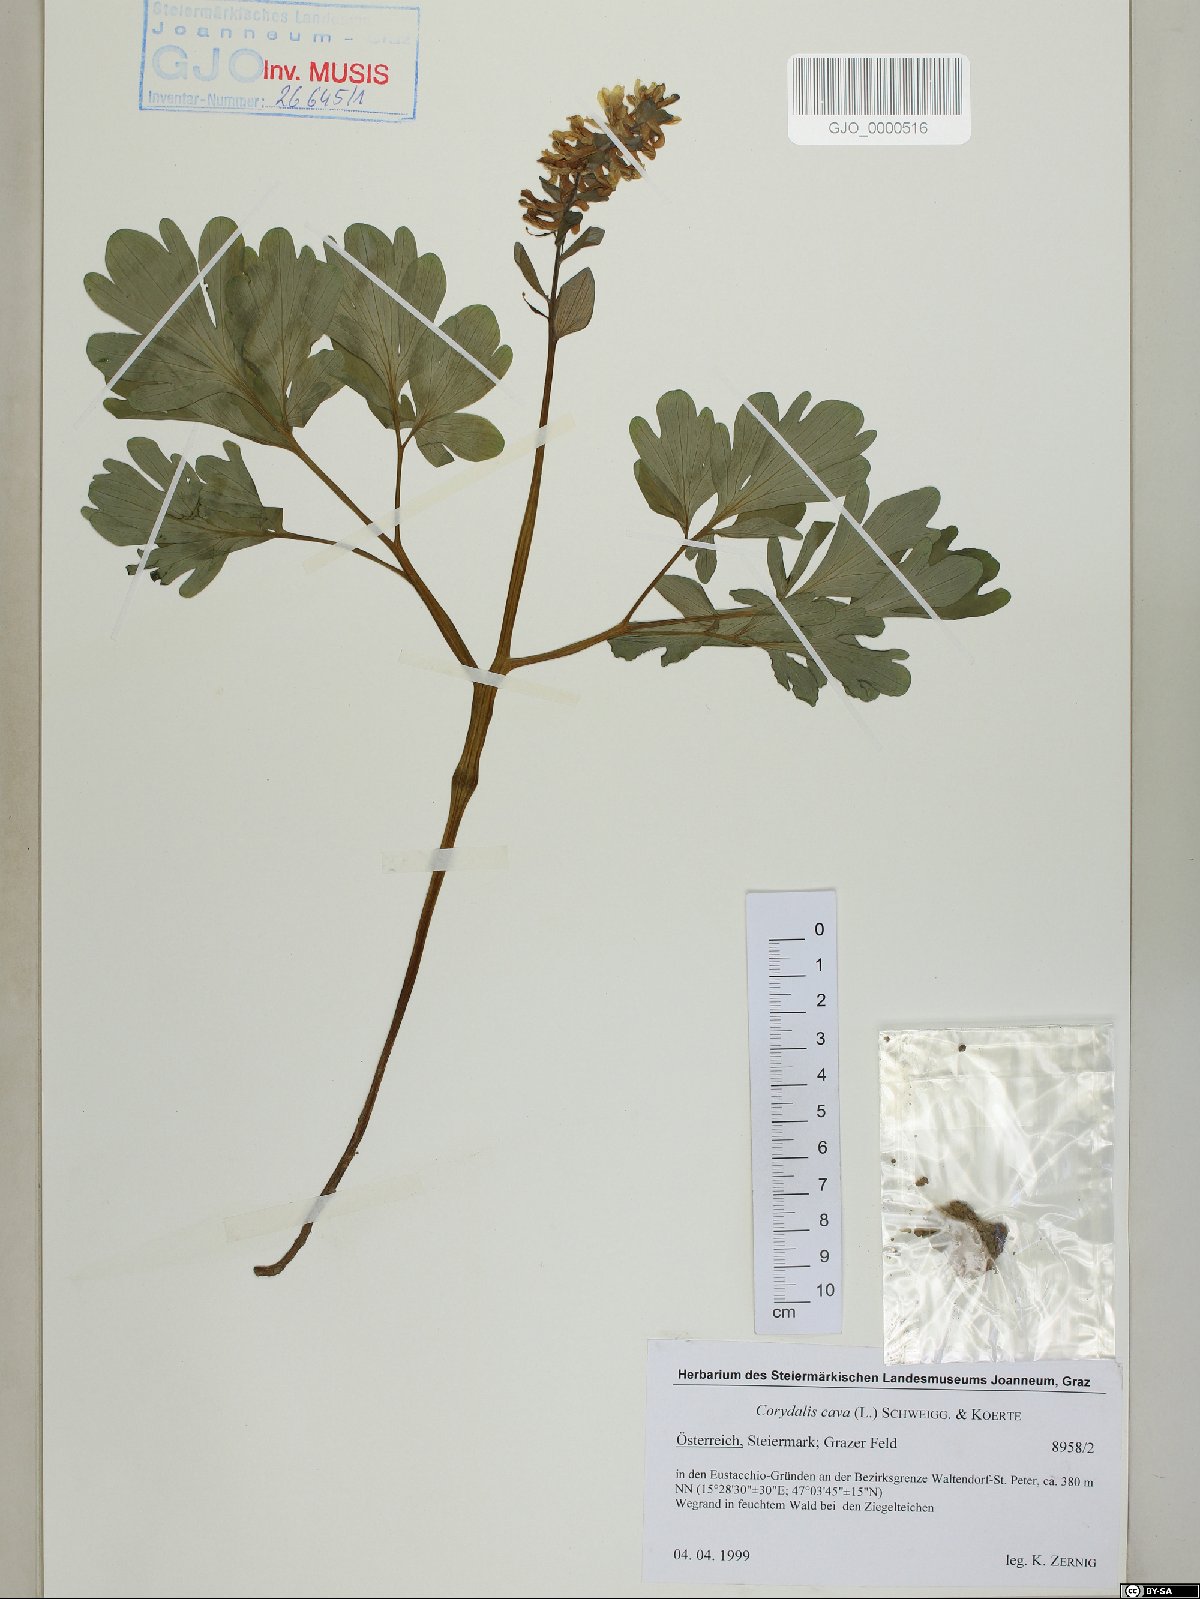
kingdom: Plantae
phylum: Tracheophyta
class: Magnoliopsida
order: Ranunculales
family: Papaveraceae
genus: Corydalis
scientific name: Corydalis cava
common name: Hollowroot
